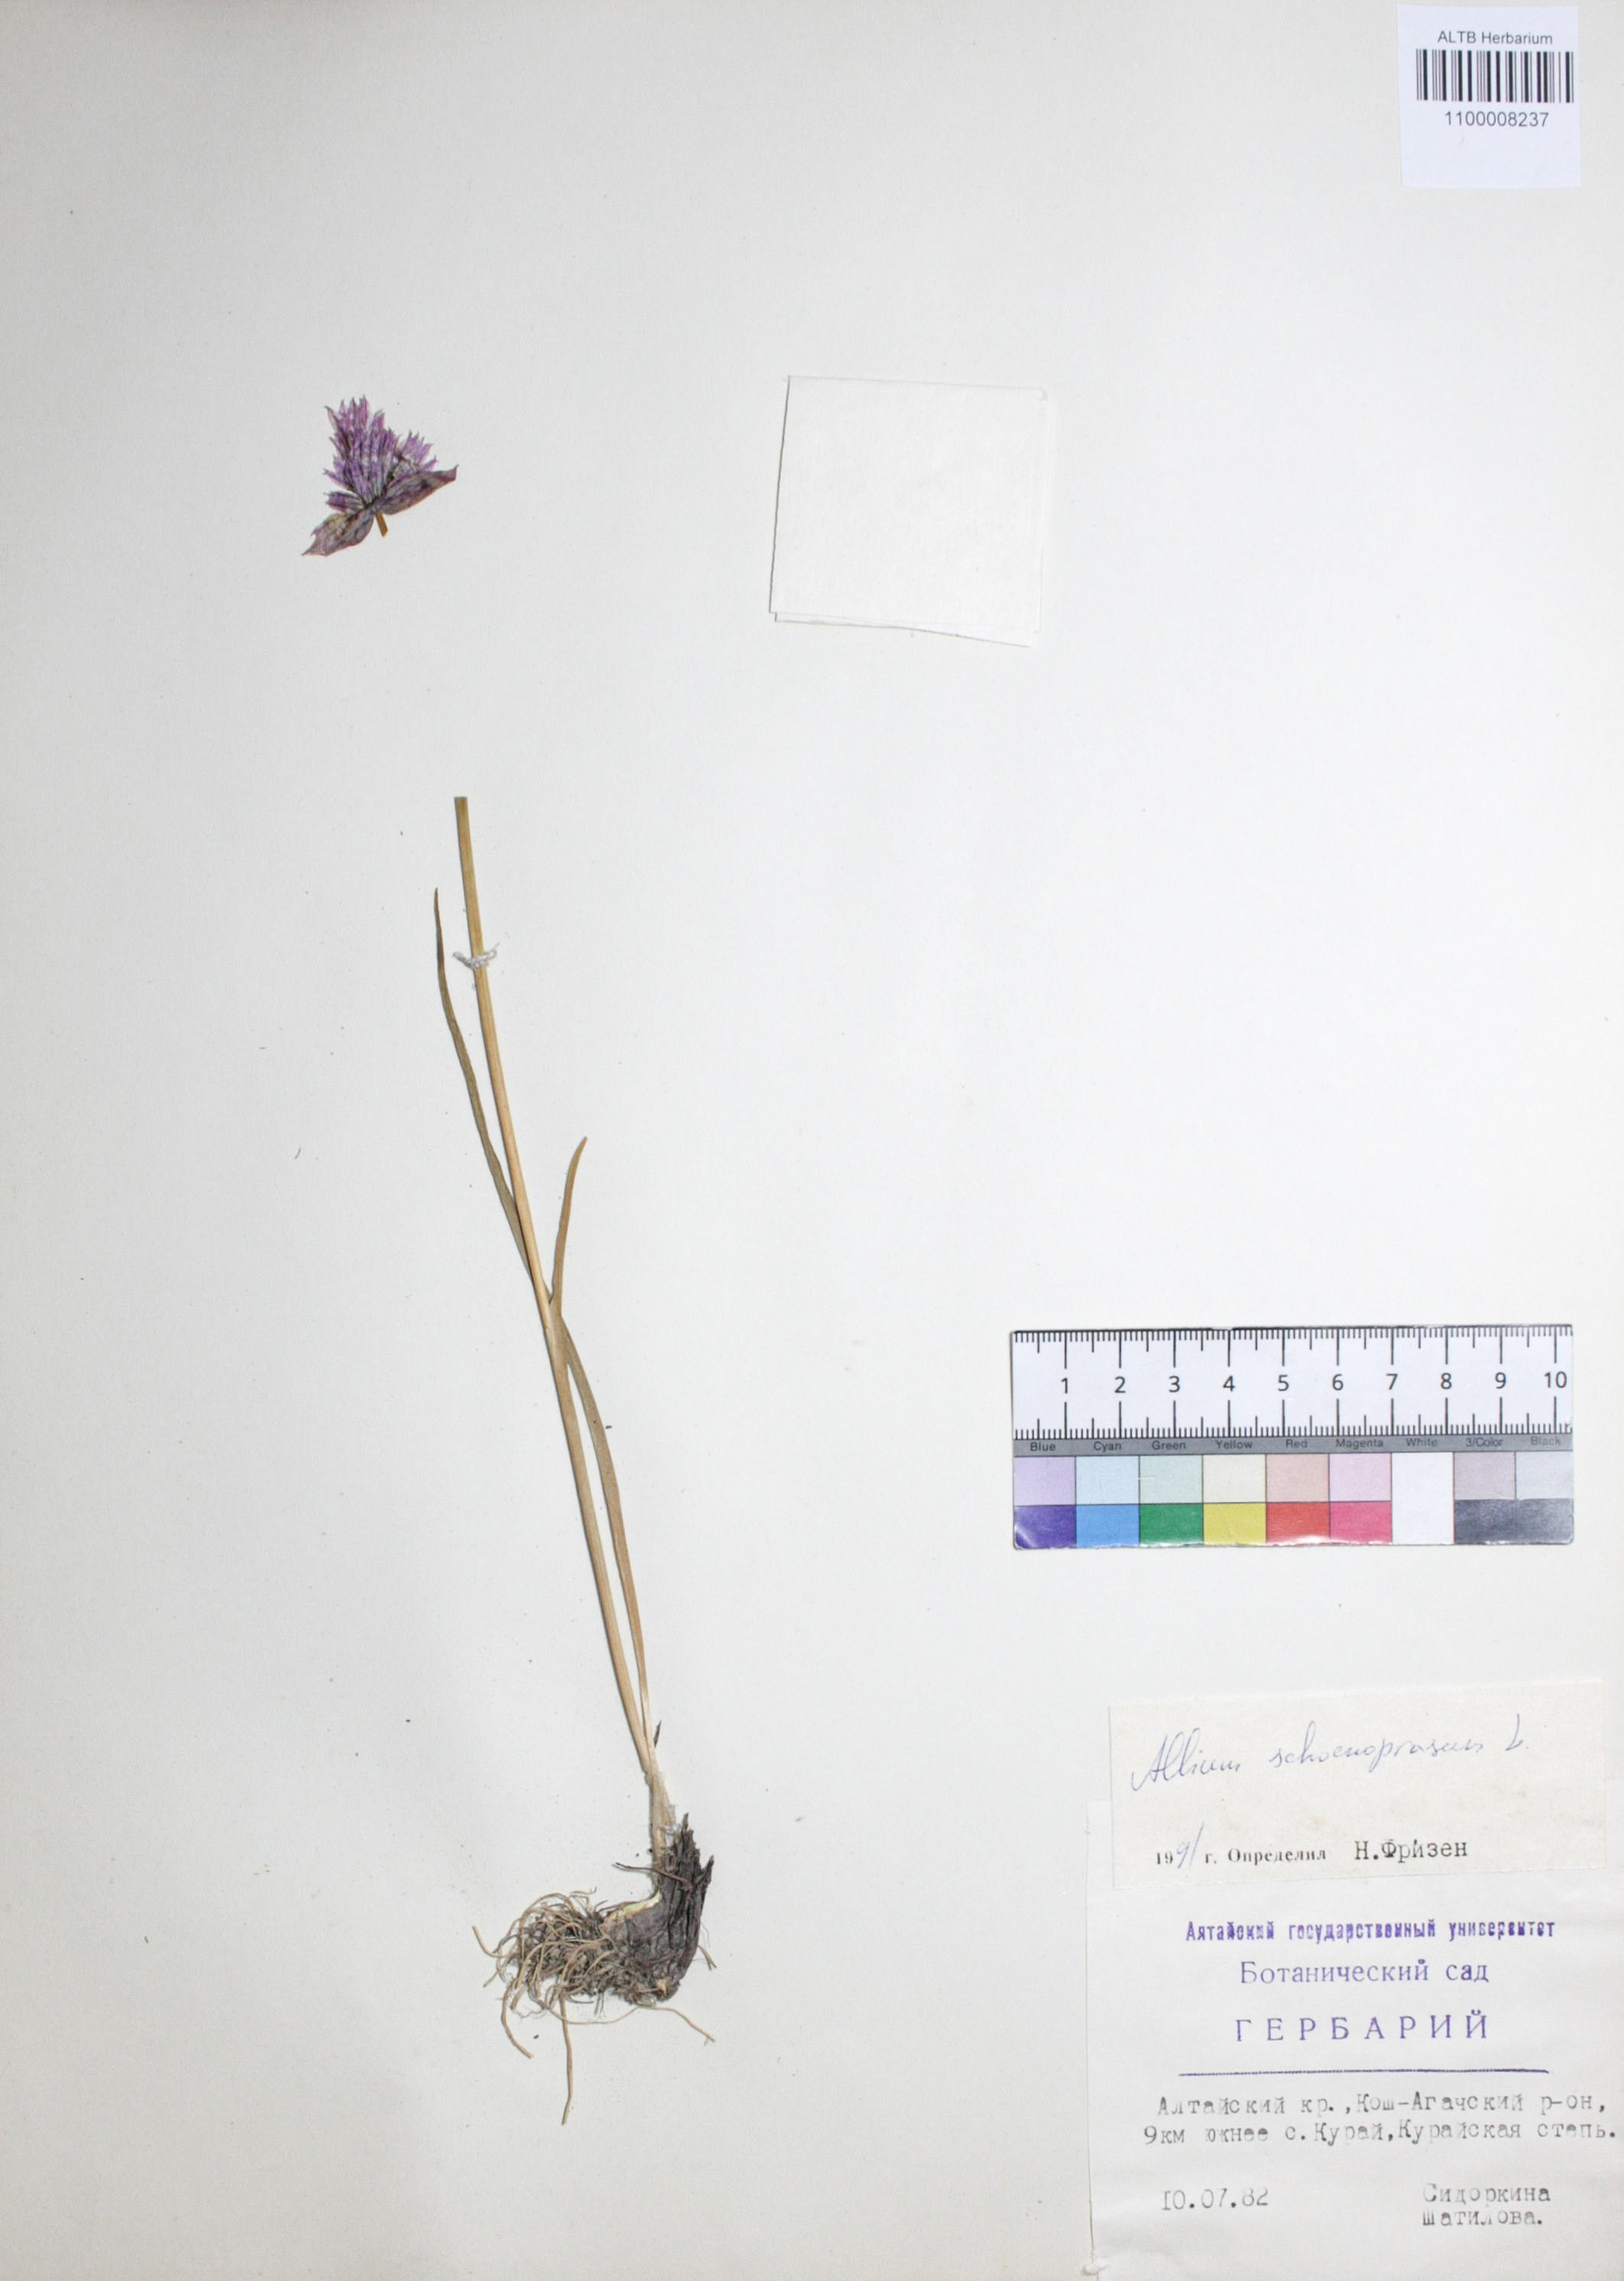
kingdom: Plantae
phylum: Tracheophyta
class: Liliopsida
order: Asparagales
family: Amaryllidaceae
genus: Allium
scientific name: Allium schoenoprasum
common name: Chives
